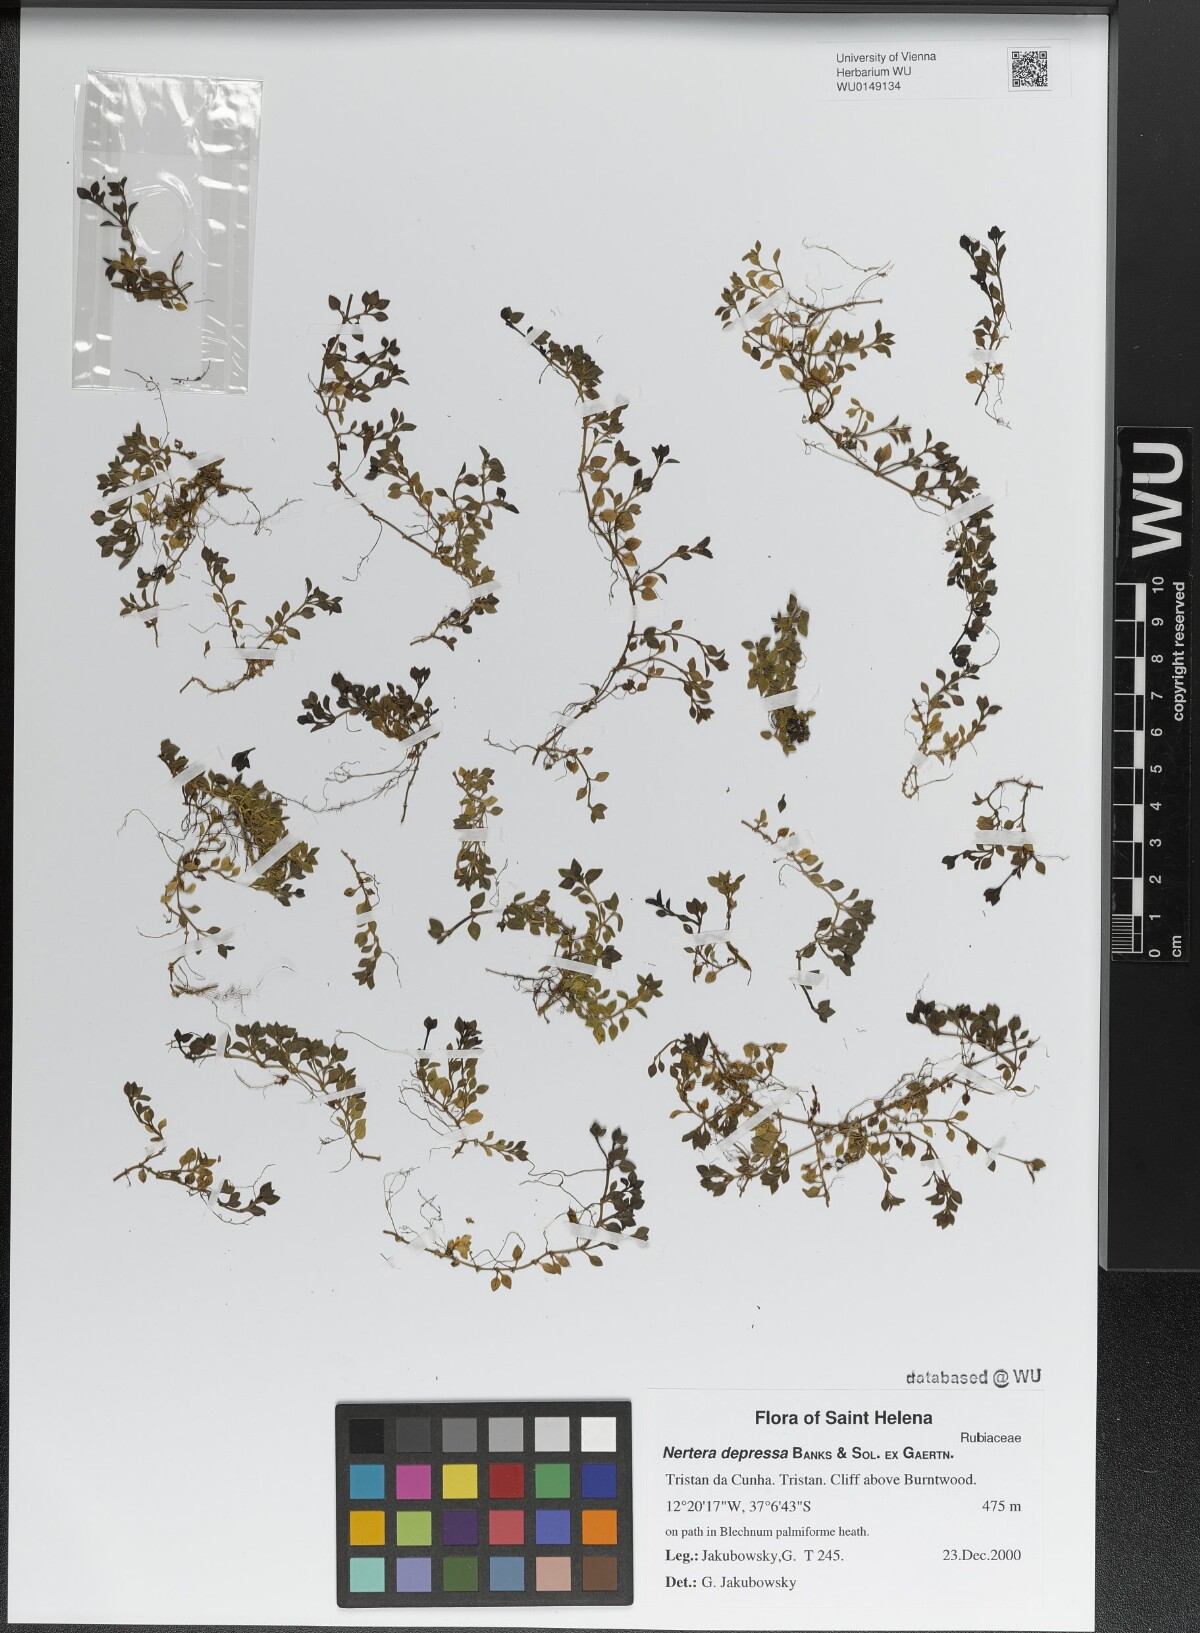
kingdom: Plantae
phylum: Tracheophyta
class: Magnoliopsida
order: Gentianales
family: Rubiaceae
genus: Nertera
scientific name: Nertera granadensis
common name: Beadplant
